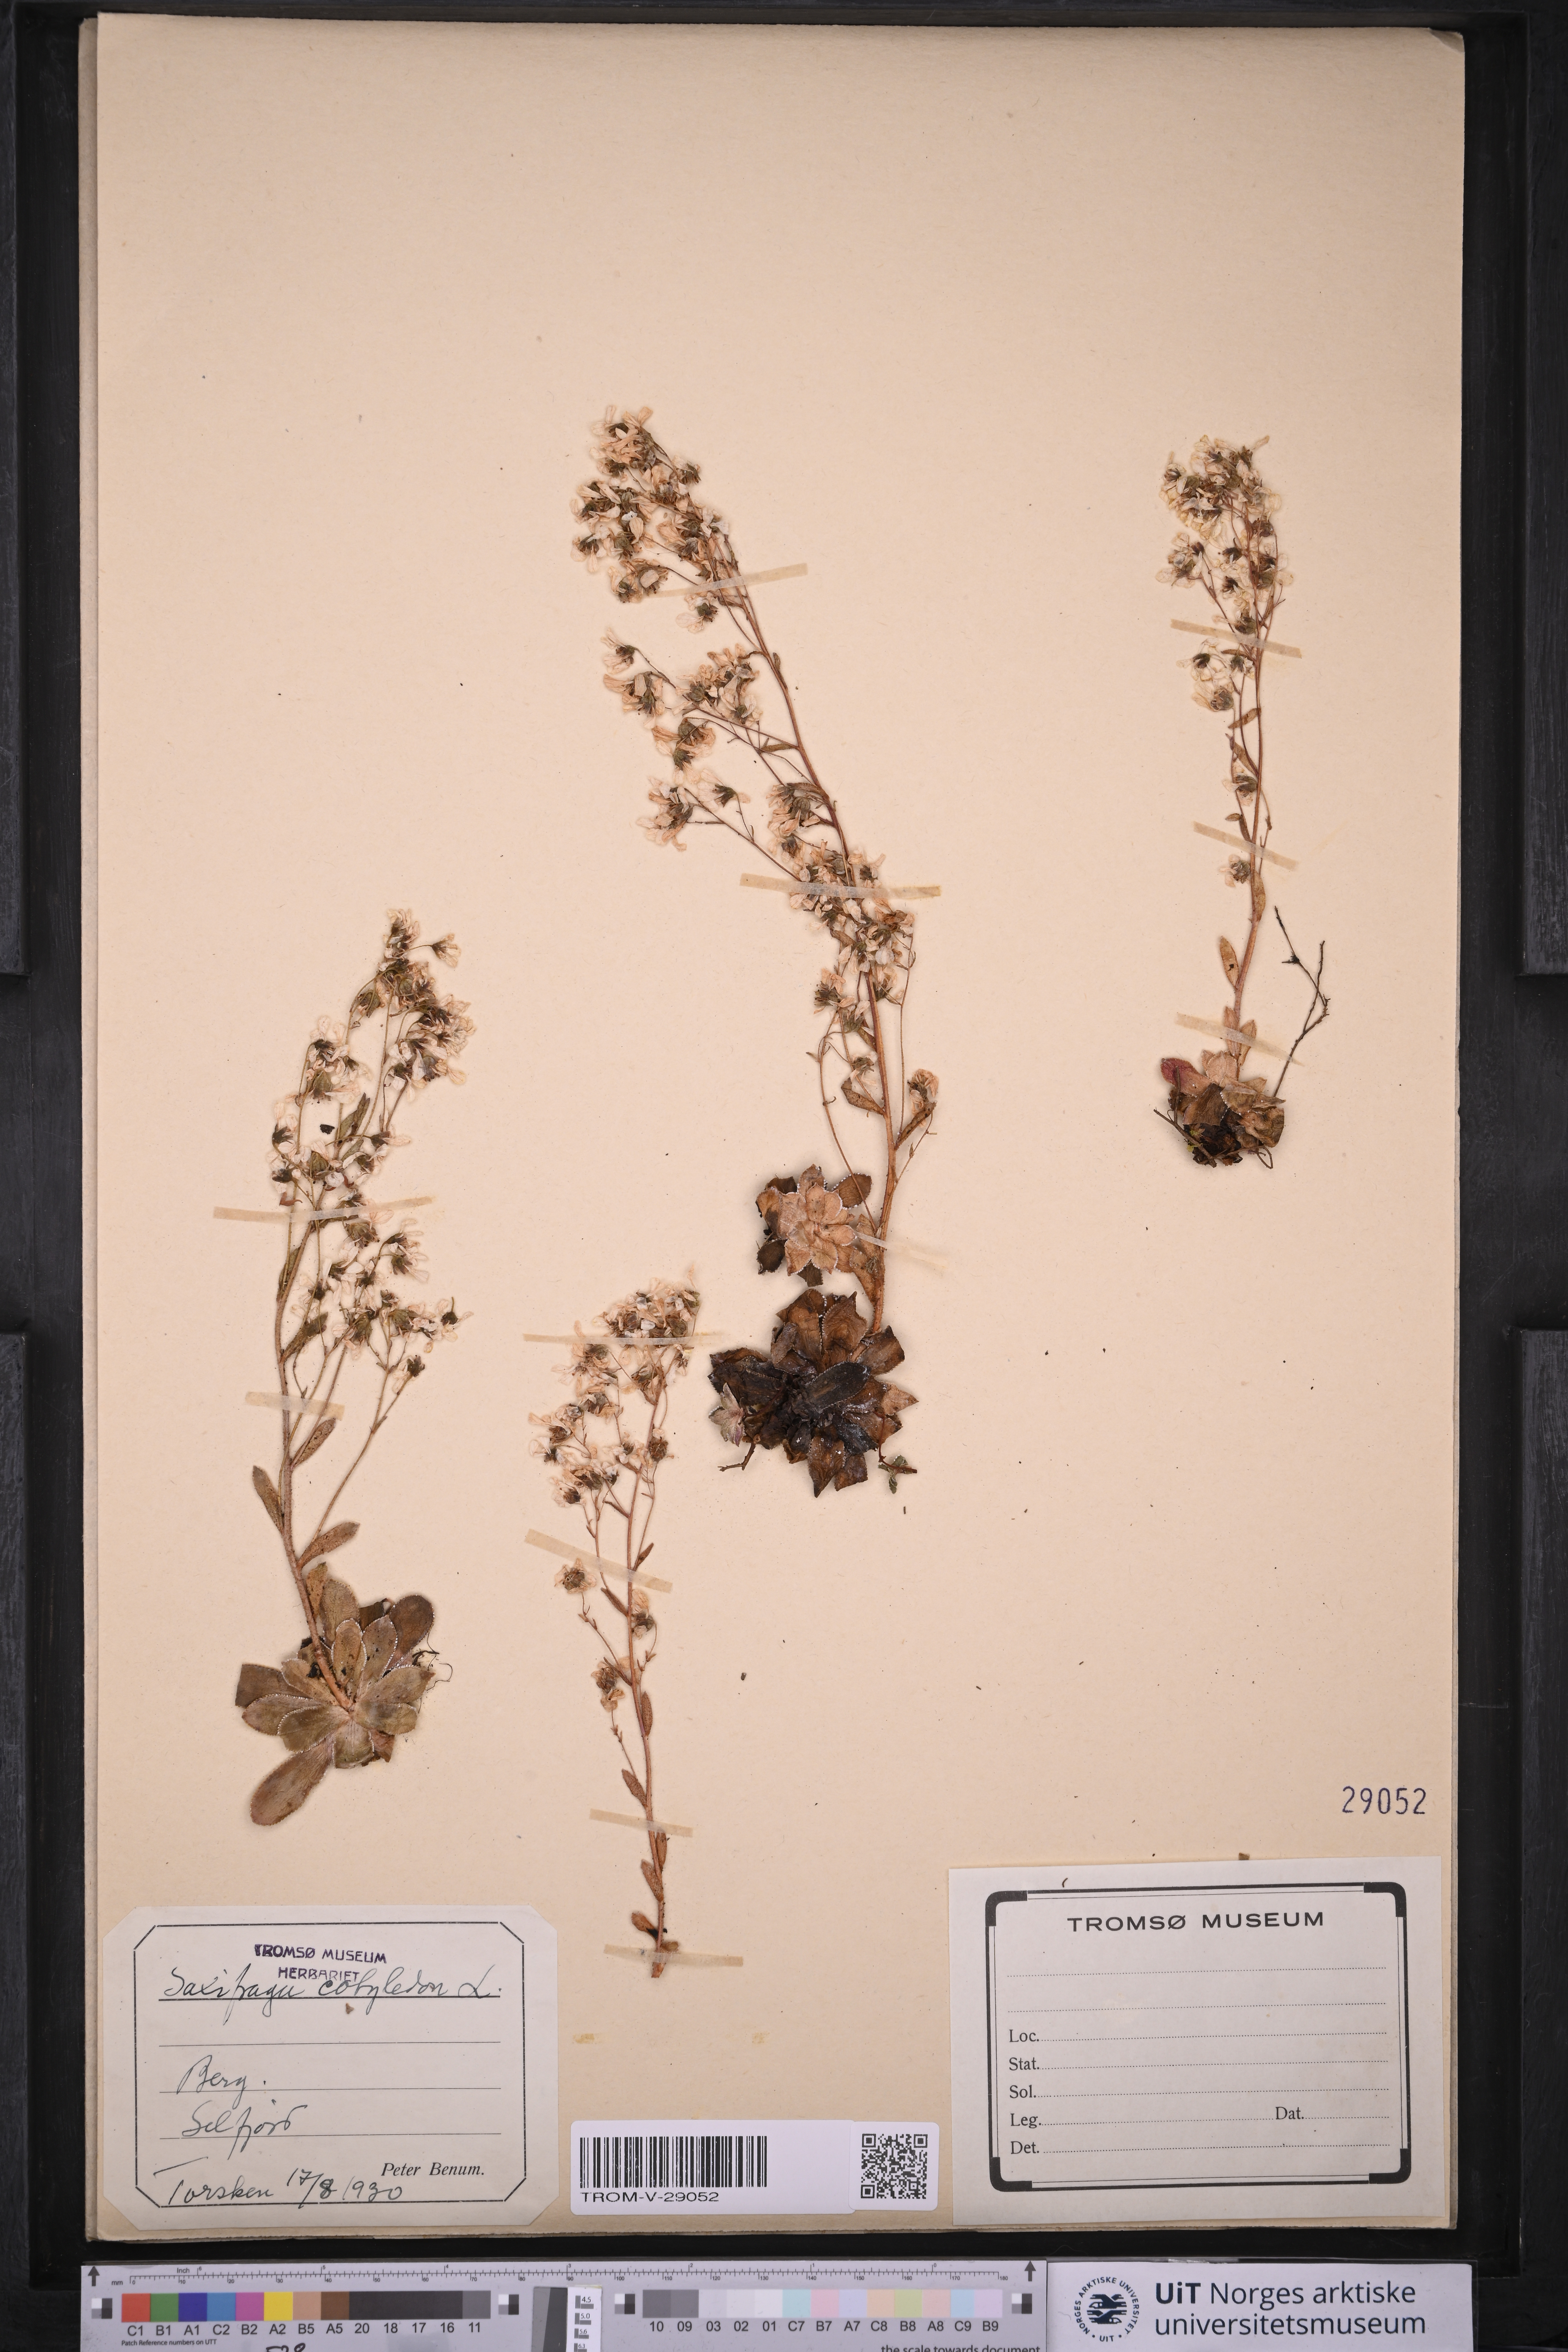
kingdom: Plantae
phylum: Tracheophyta
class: Magnoliopsida
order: Saxifragales
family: Saxifragaceae
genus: Saxifraga
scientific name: Saxifraga cotyledon
